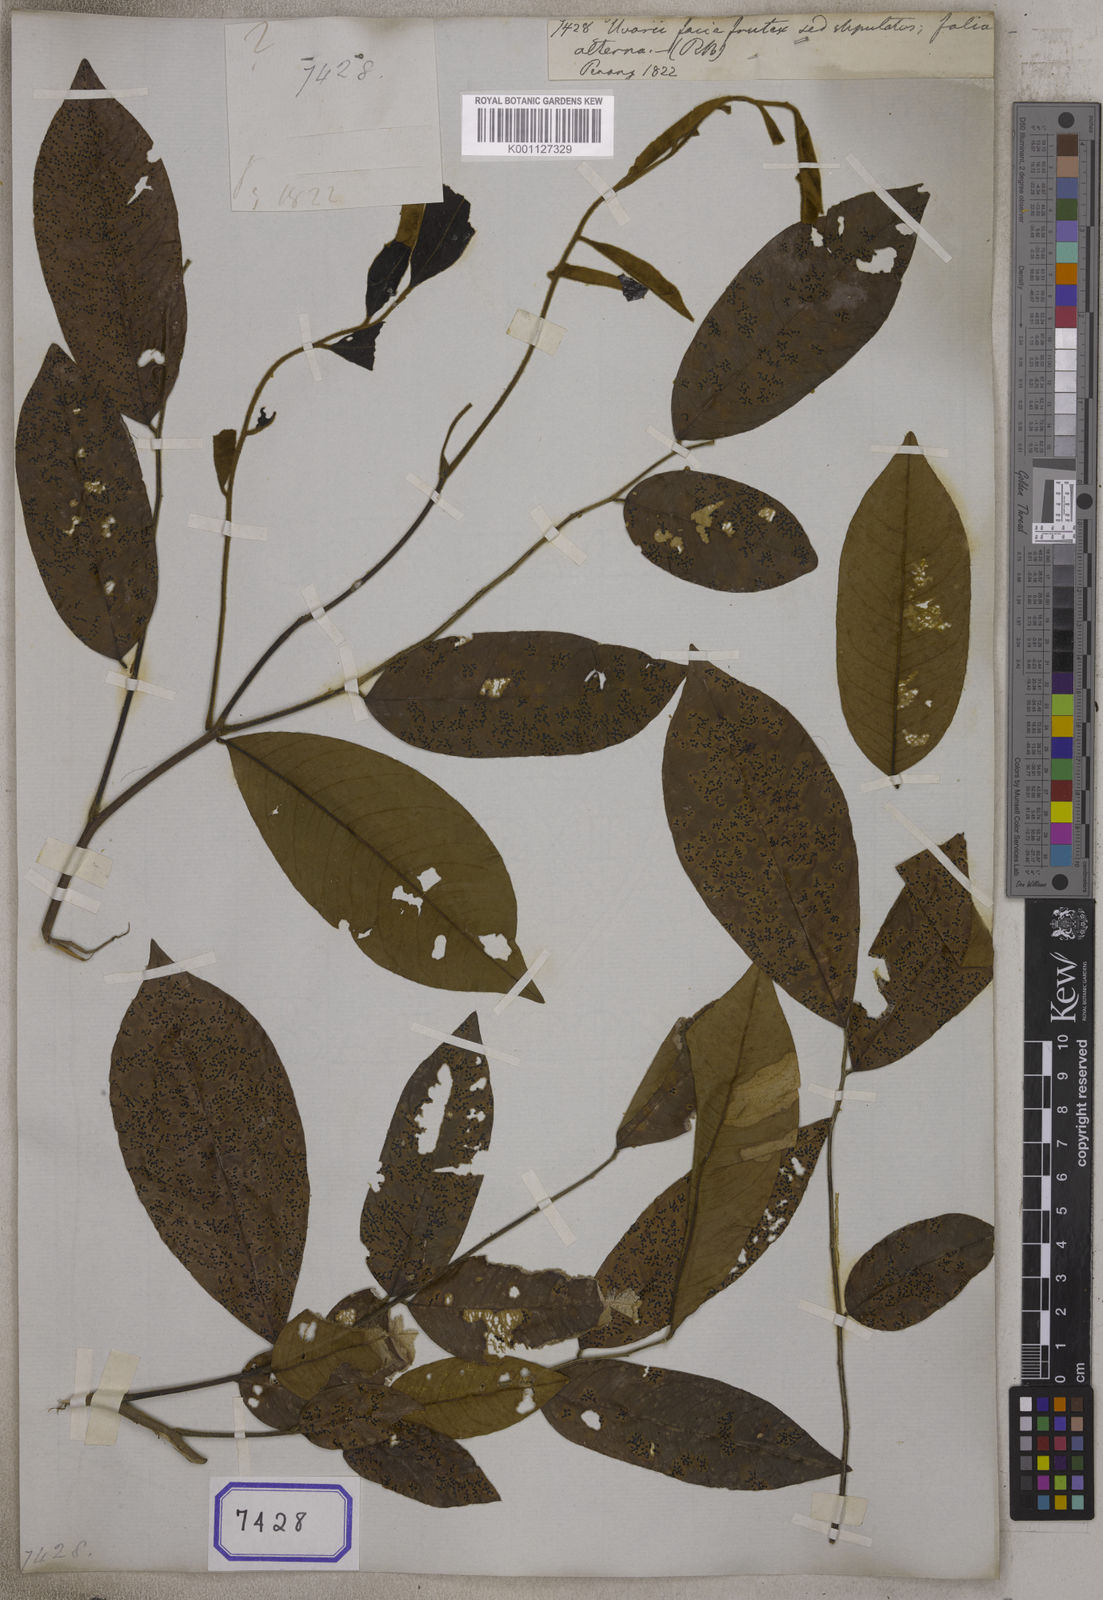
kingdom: Plantae
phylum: Tracheophyta
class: Magnoliopsida
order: Magnoliales
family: Annonaceae
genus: Uvaria
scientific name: Uvaria
